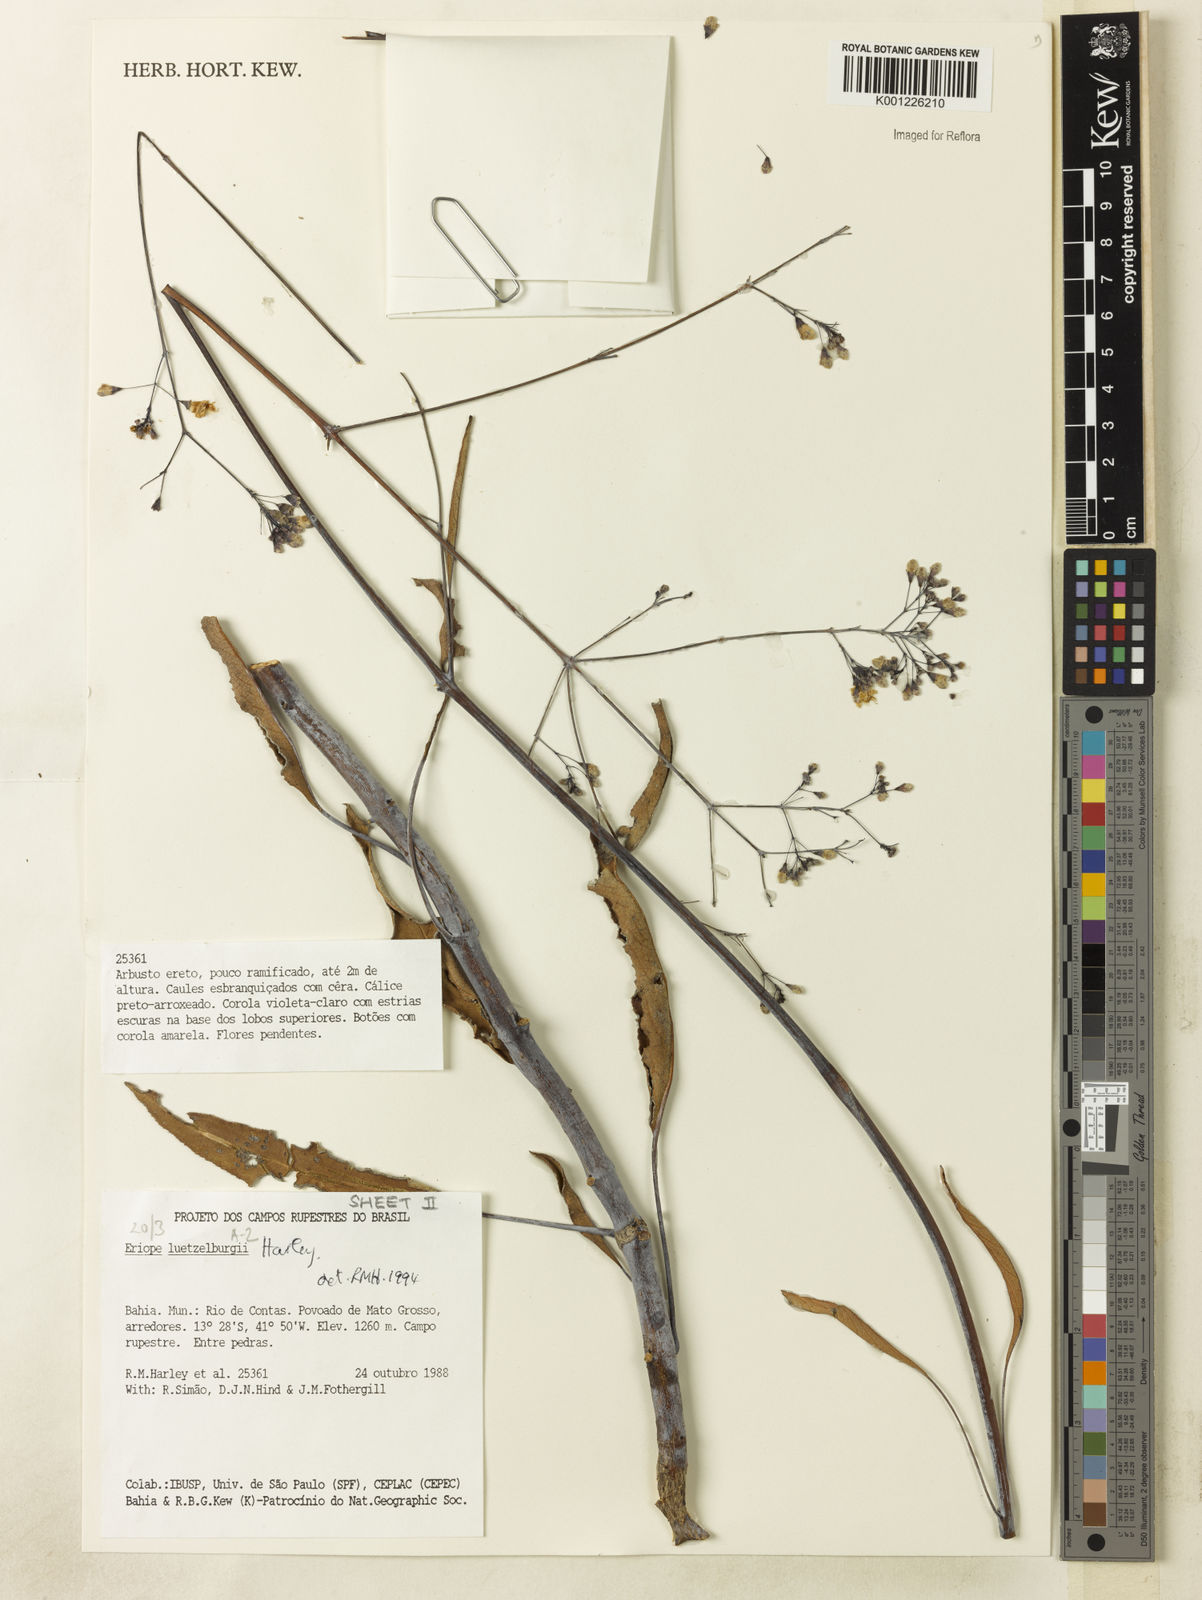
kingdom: Plantae
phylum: Tracheophyta
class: Magnoliopsida
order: Lamiales
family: Lamiaceae
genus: Eriope
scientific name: Eriope luetzelburgii
